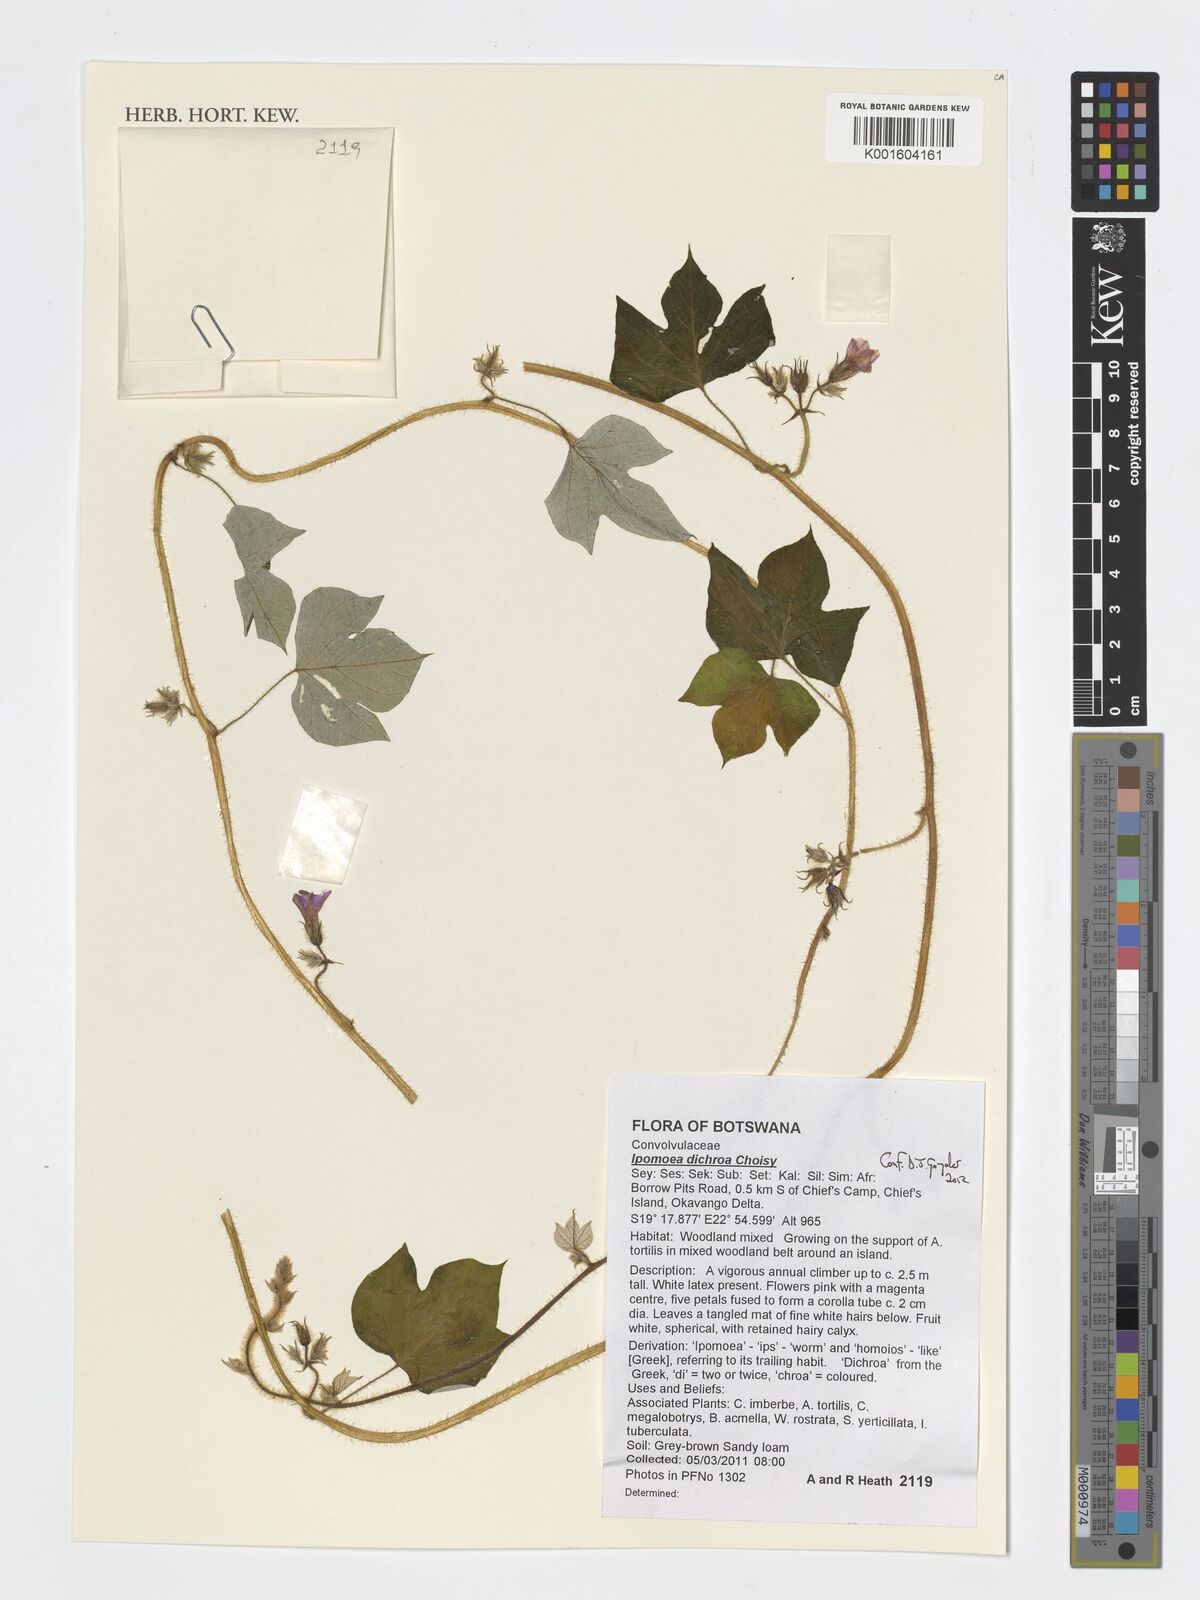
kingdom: Plantae
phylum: Tracheophyta
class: Magnoliopsida
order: Solanales
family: Convolvulaceae
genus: Ipomoea
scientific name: Ipomoea arachnosperma
